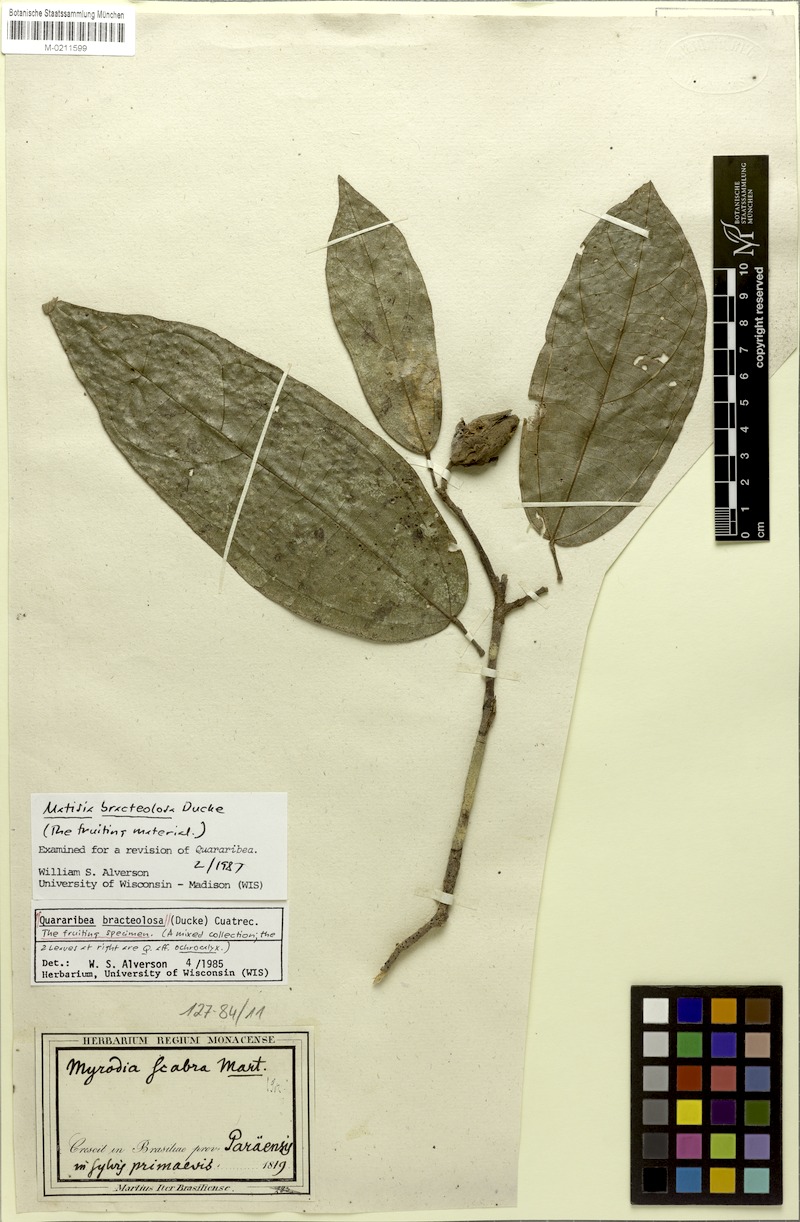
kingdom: Plantae
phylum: Tracheophyta
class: Magnoliopsida
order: Malvales
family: Malvaceae
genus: Matisia
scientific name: Matisia bracteolosa
